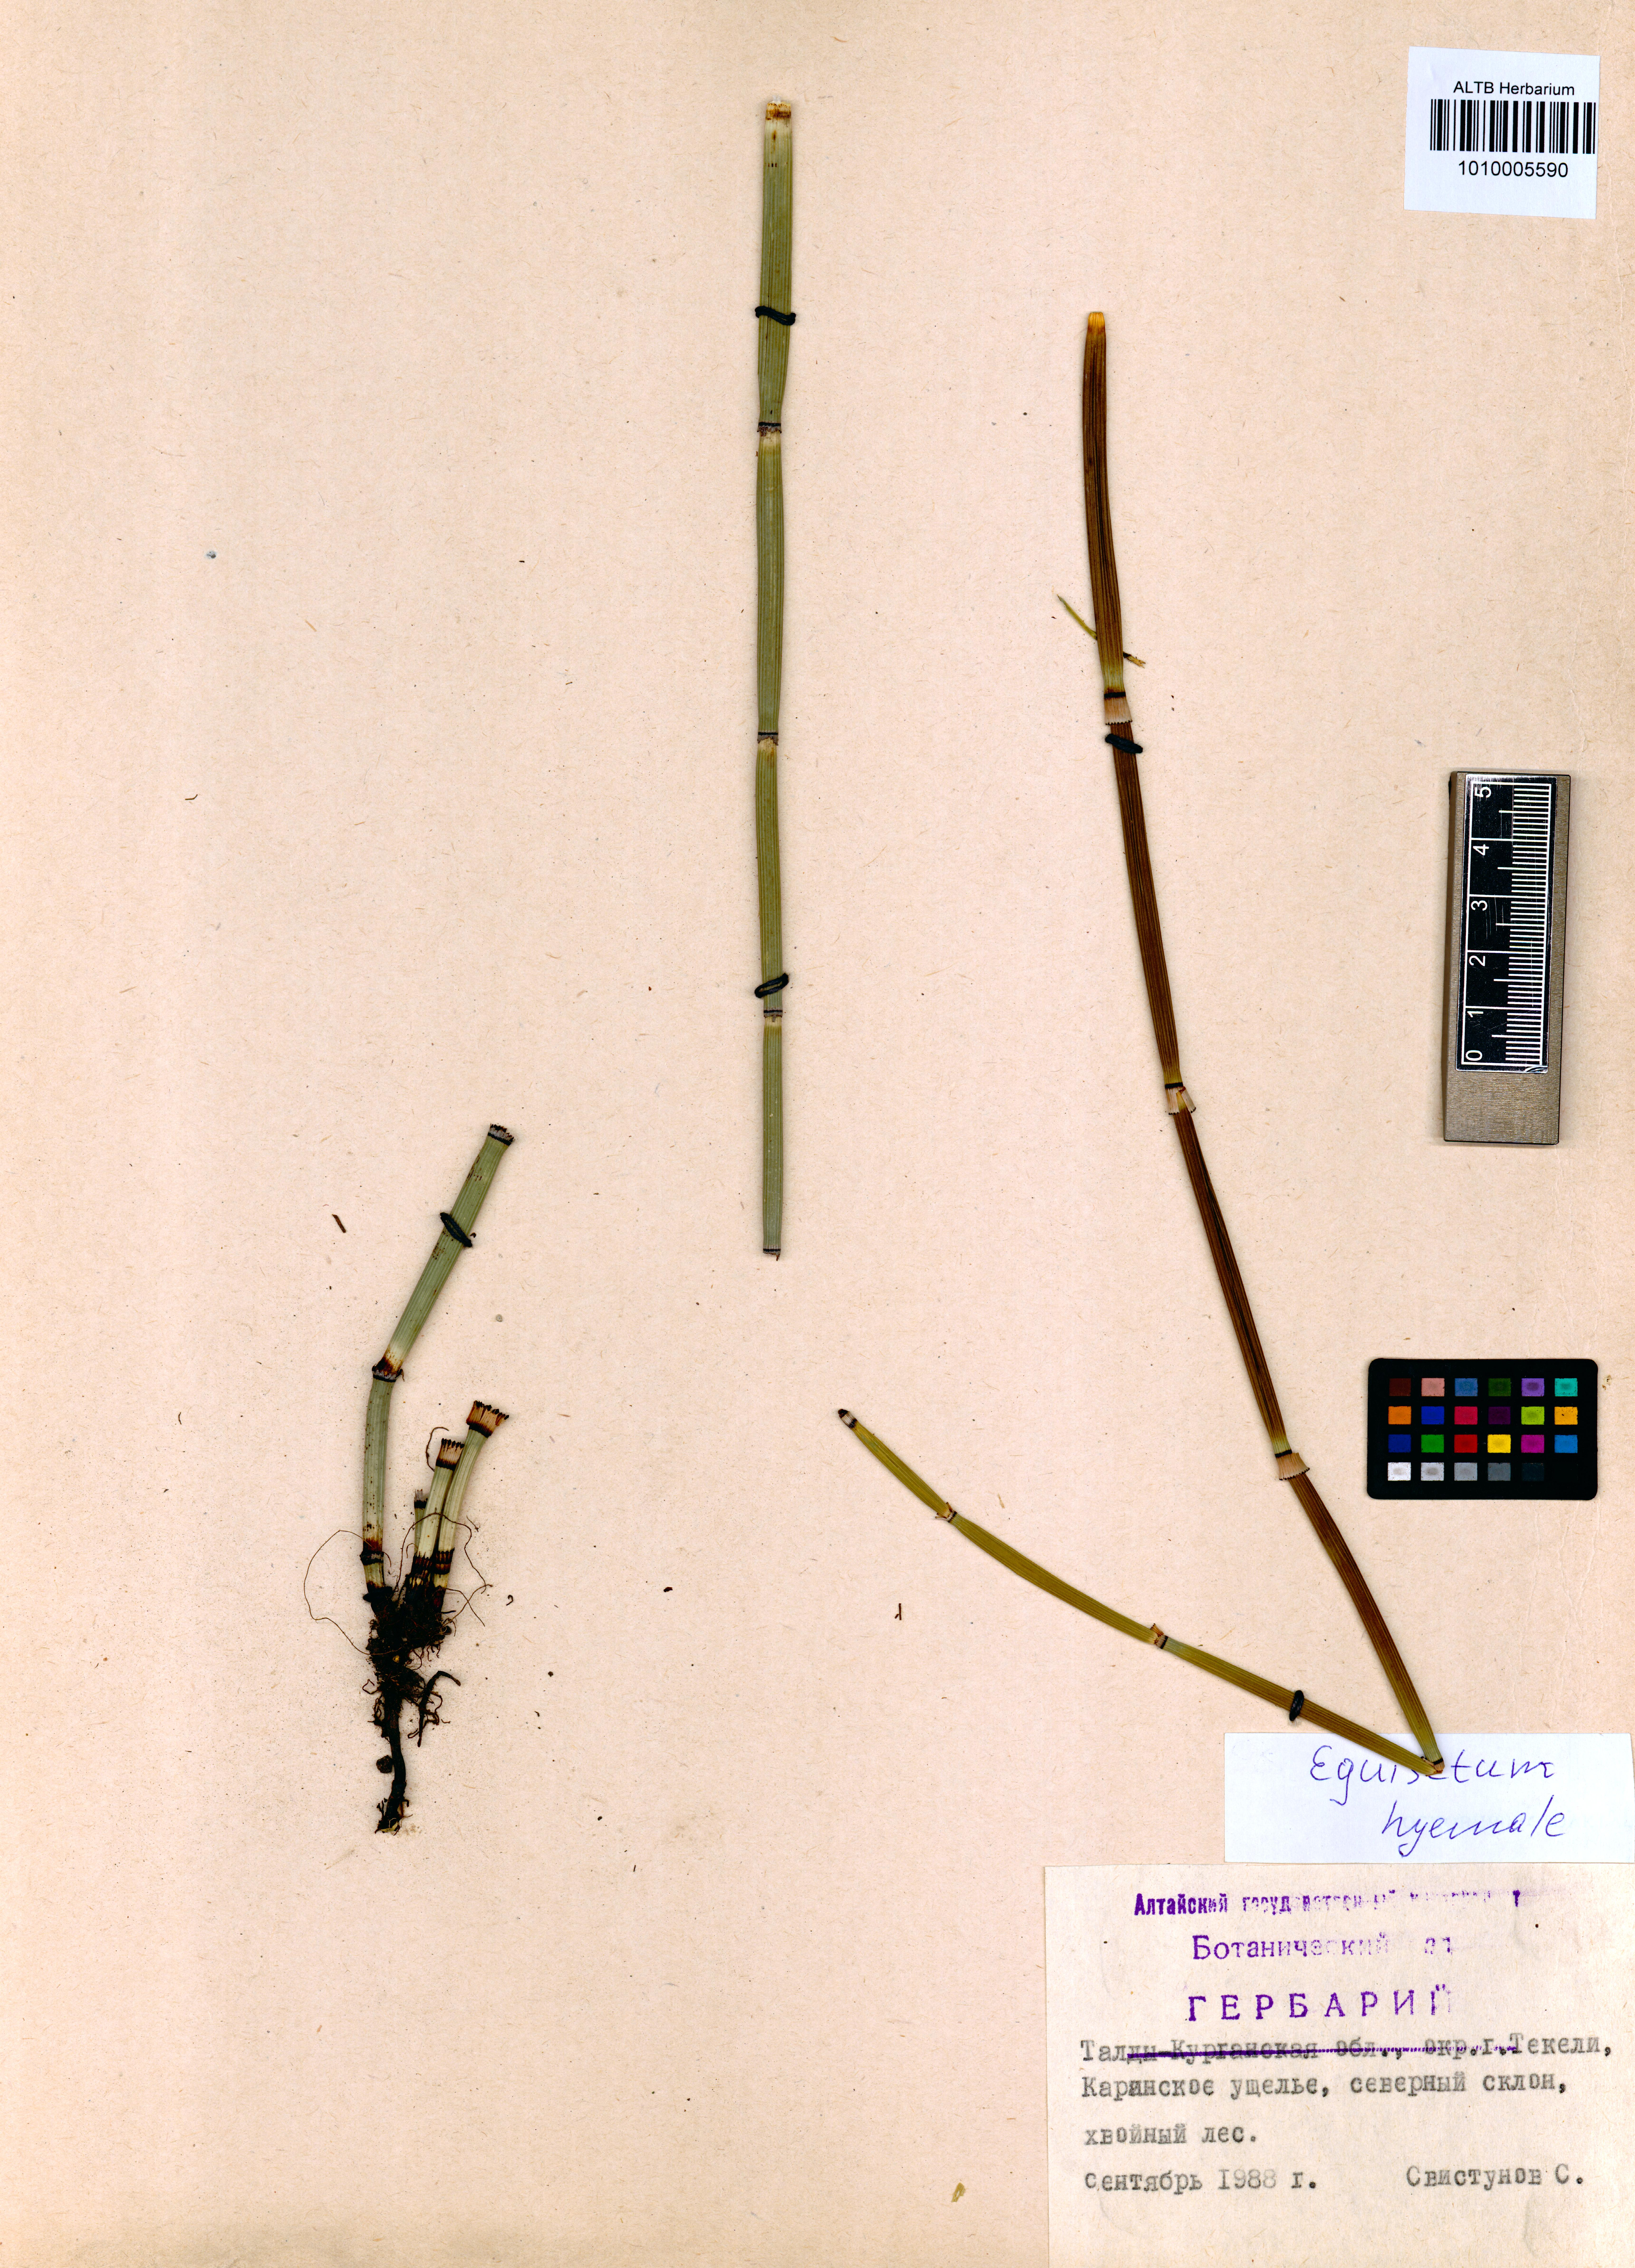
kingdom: Plantae
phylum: Tracheophyta
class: Polypodiopsida
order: Equisetales
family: Equisetaceae
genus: Equisetum
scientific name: Equisetum hyemale
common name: Rough horsetail
